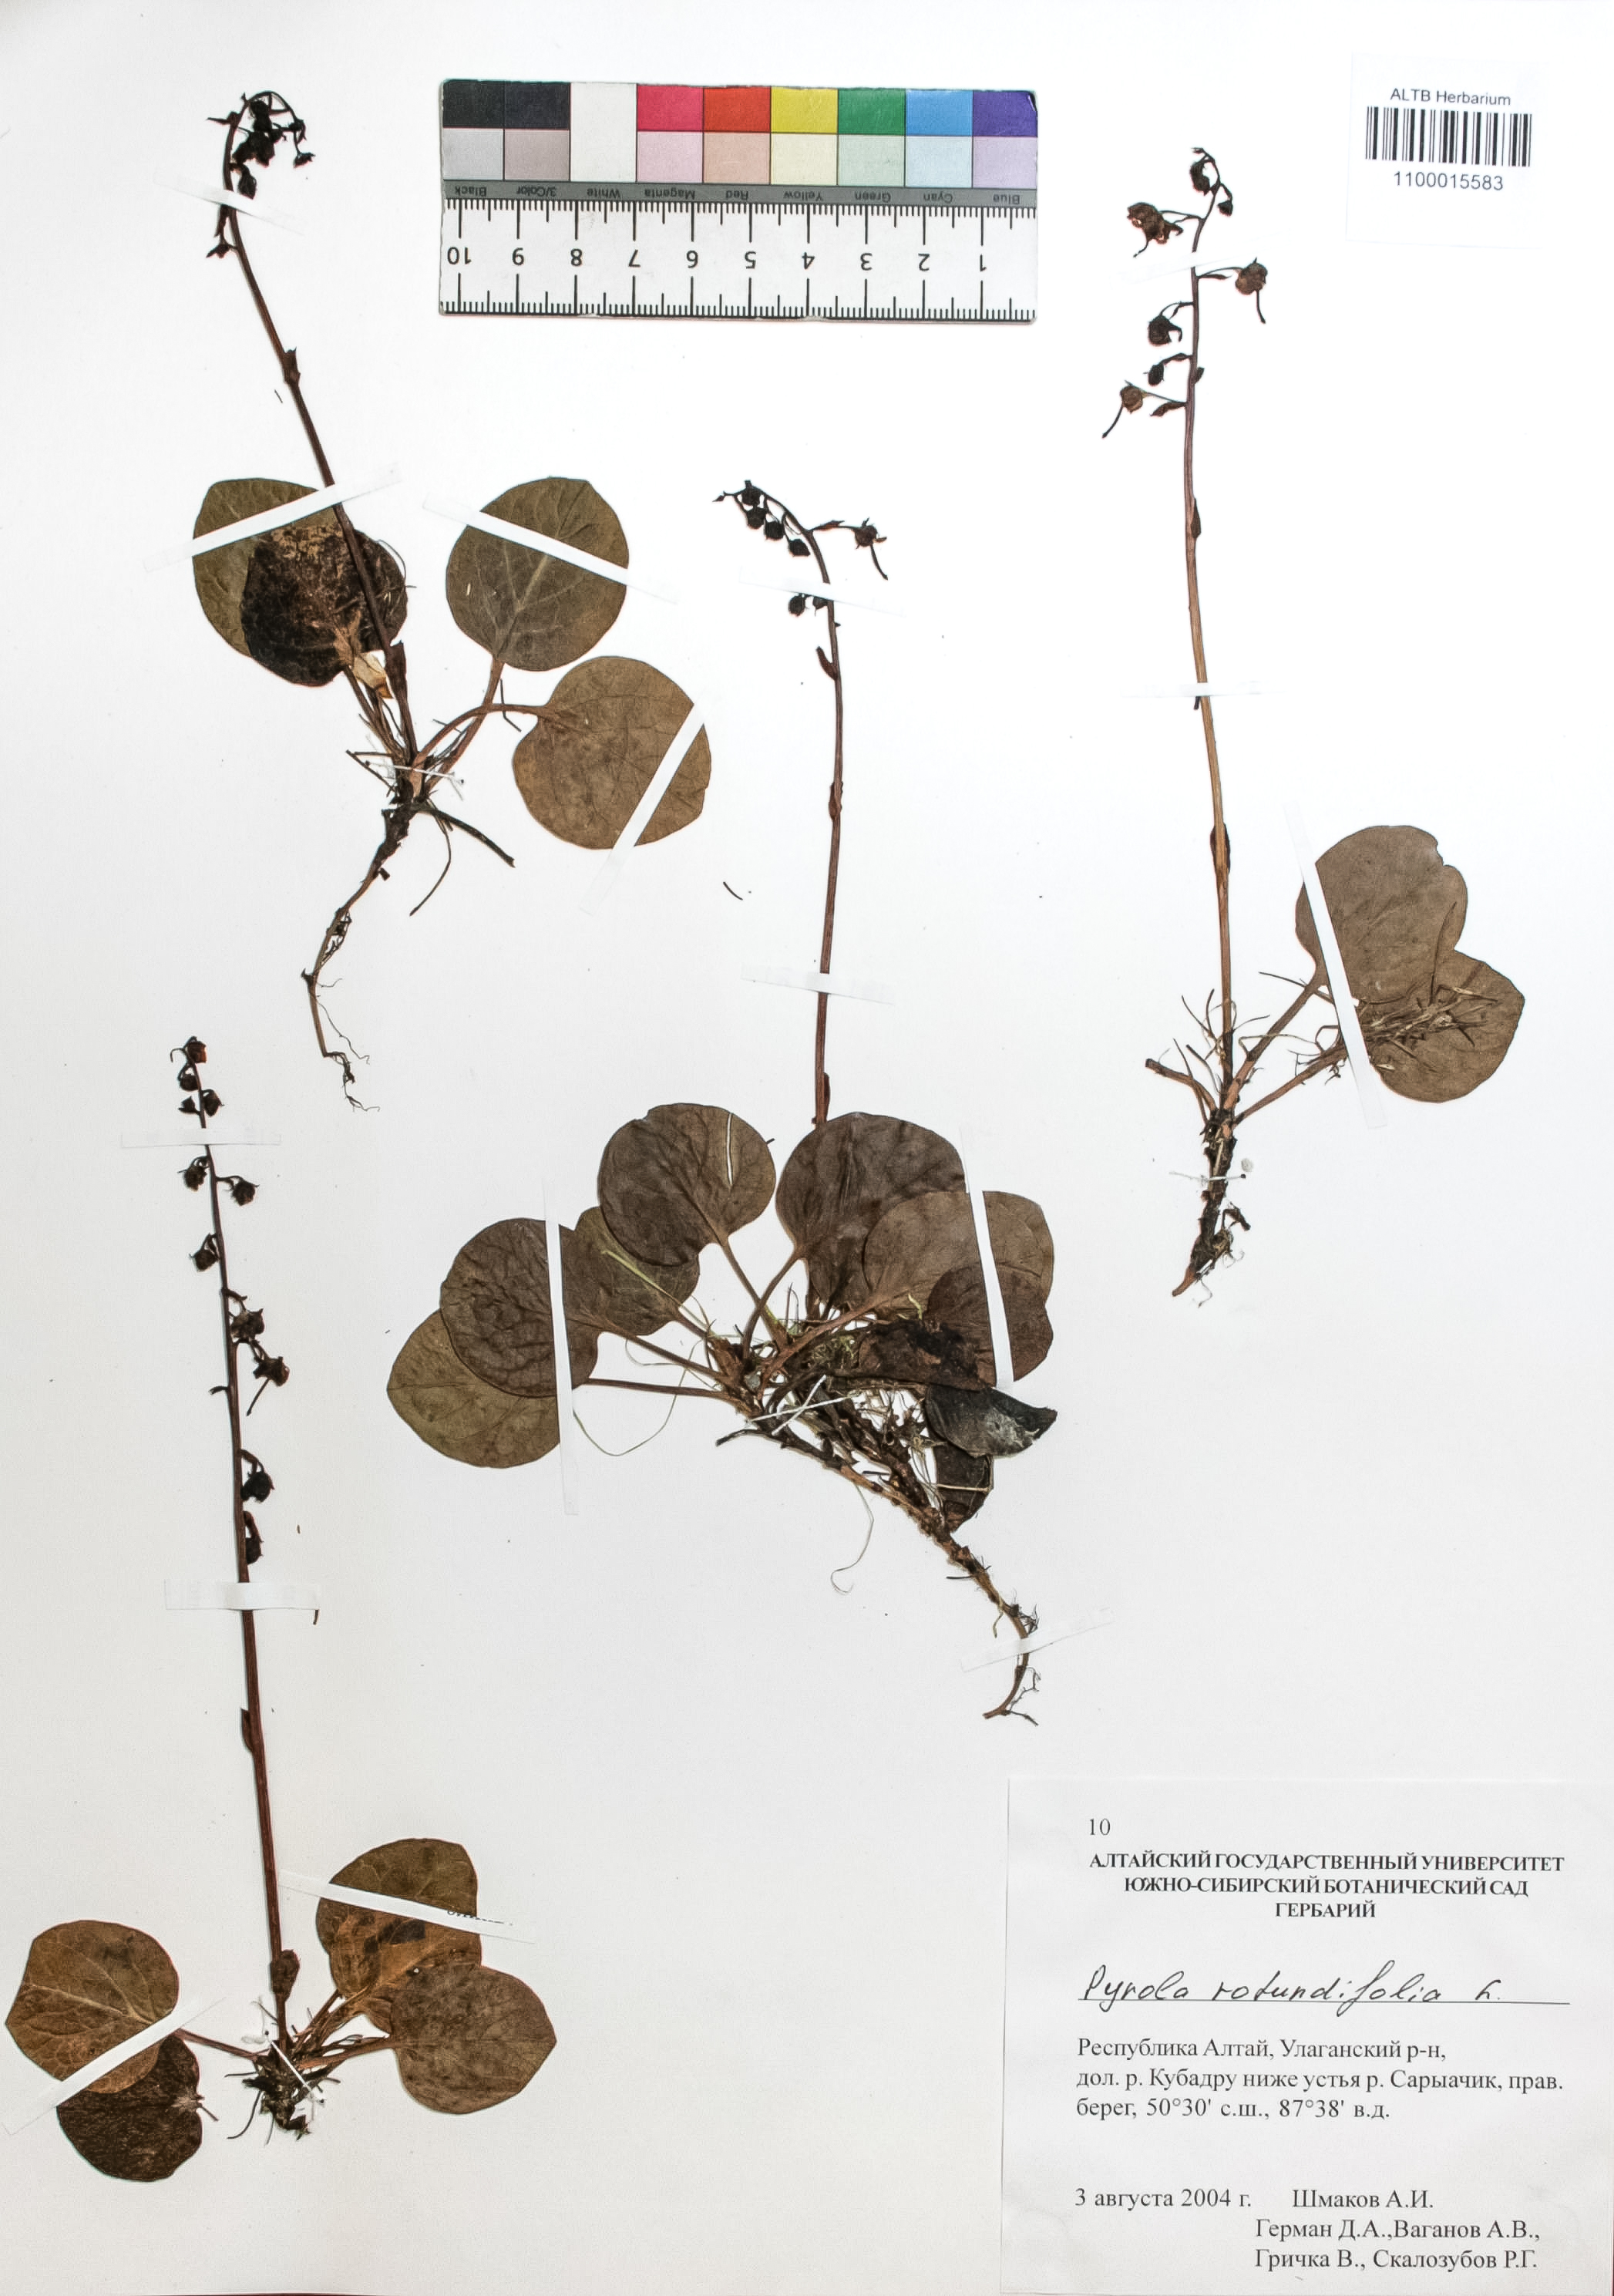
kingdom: Plantae
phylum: Tracheophyta
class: Magnoliopsida
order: Ericales
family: Ericaceae
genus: Pyrola
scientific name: Pyrola rotundifolia
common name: Round-leaved wintergreen
